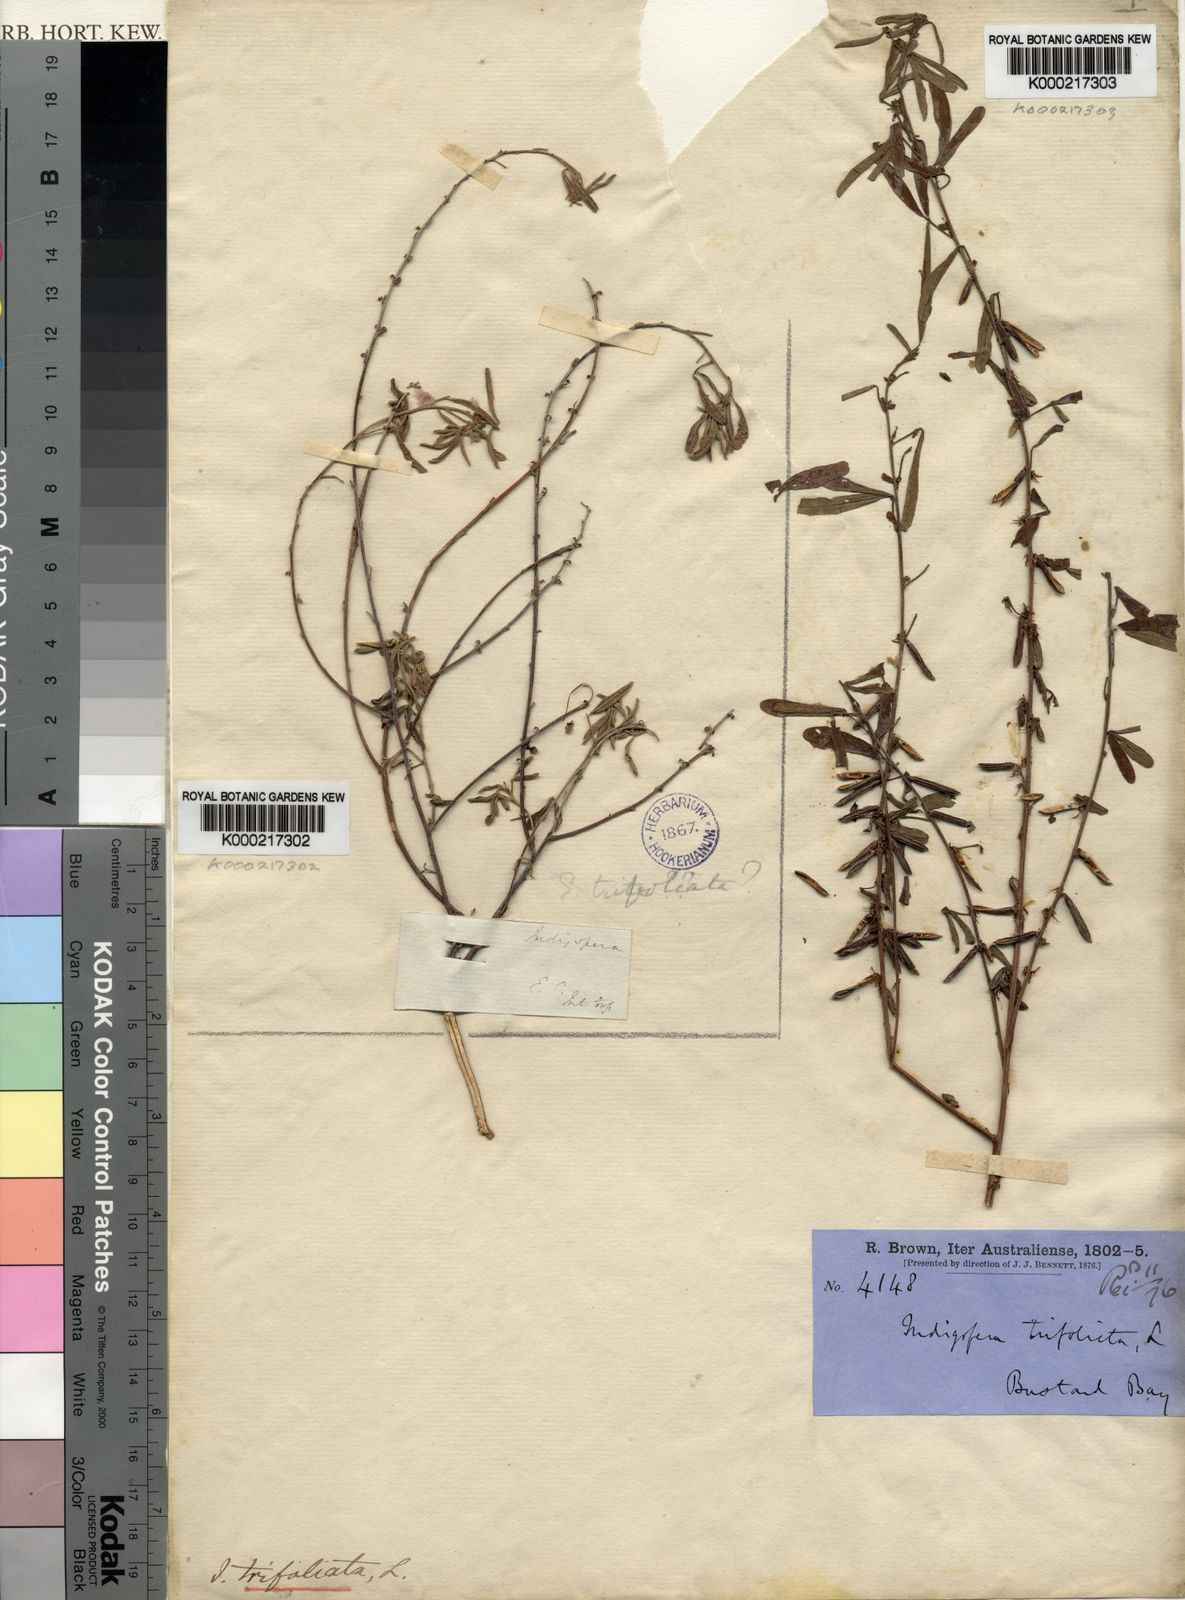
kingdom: Plantae
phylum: Tracheophyta
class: Magnoliopsida
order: Fabales
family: Fabaceae
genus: Indigofera
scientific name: Indigofera trifoliata
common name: Threeleaf indigo
